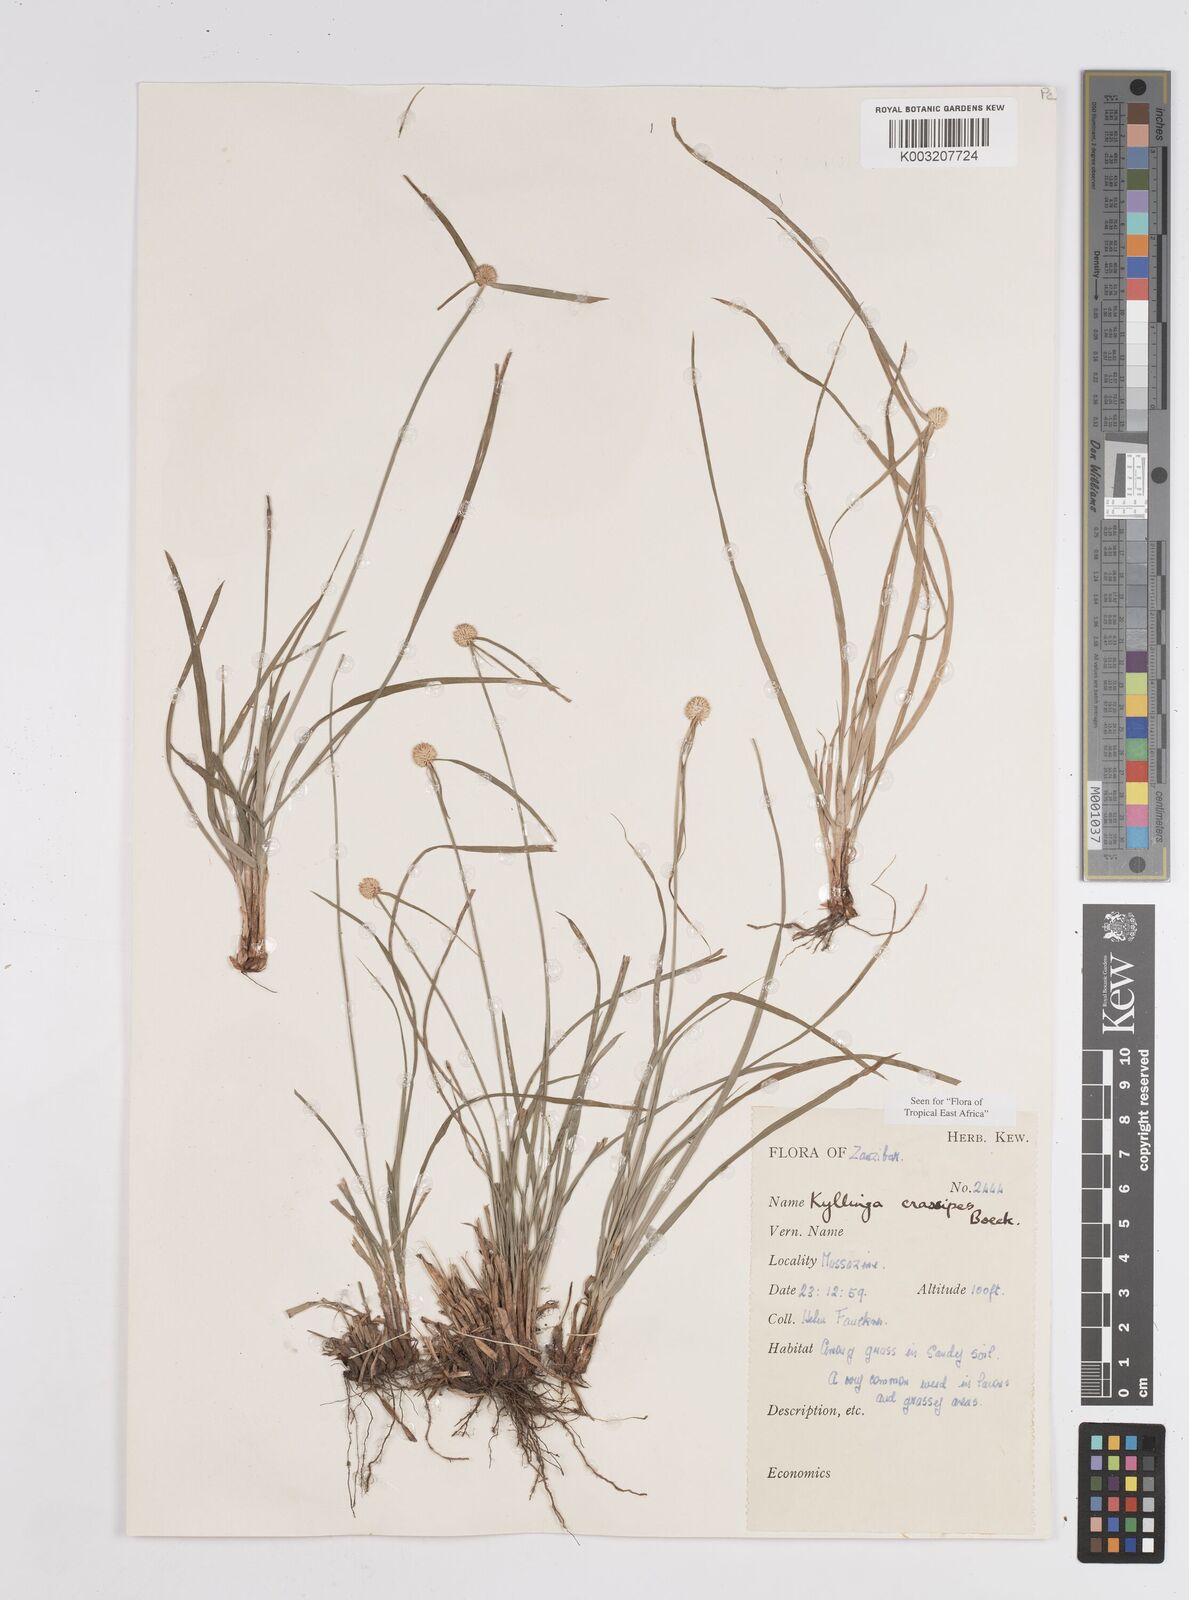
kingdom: Plantae
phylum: Tracheophyta
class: Liliopsida
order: Poales
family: Cyperaceae
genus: Cyperus
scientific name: Cyperus
